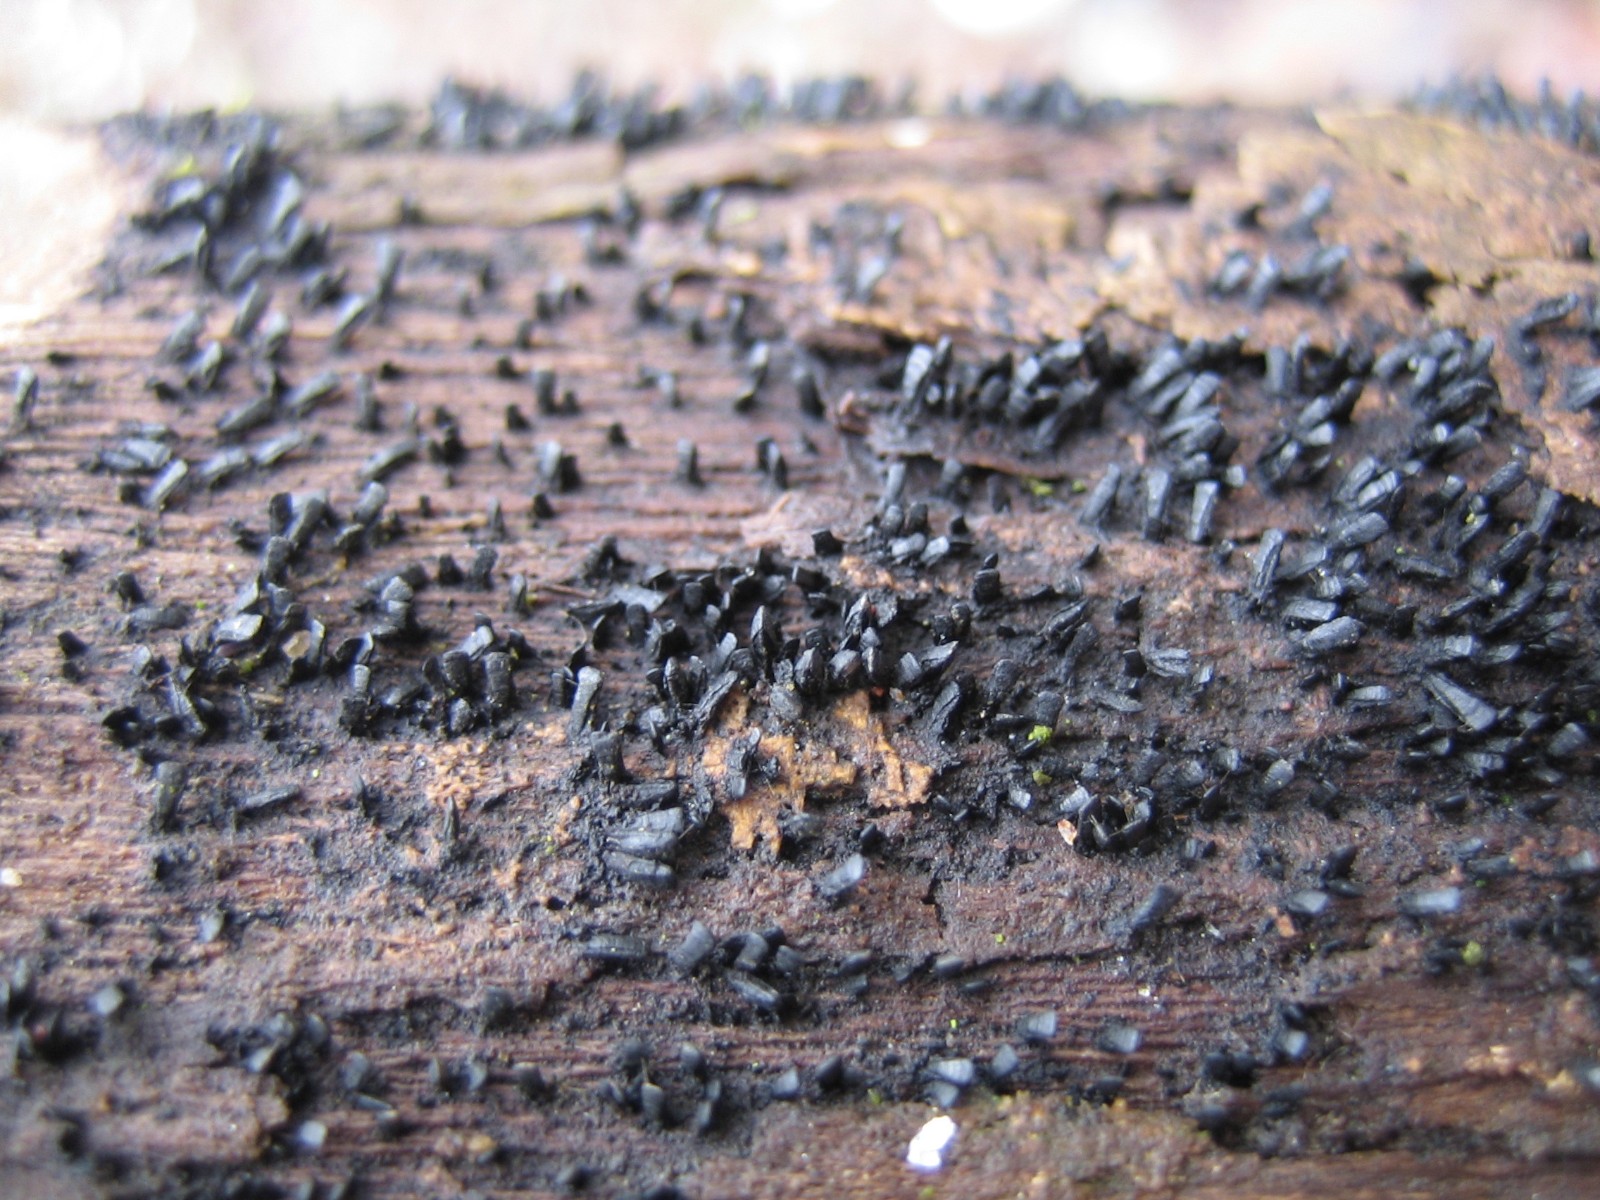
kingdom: Fungi
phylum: Ascomycota
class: Eurotiomycetes
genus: Glyphium
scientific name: Glyphium elatum
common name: kuløkse
